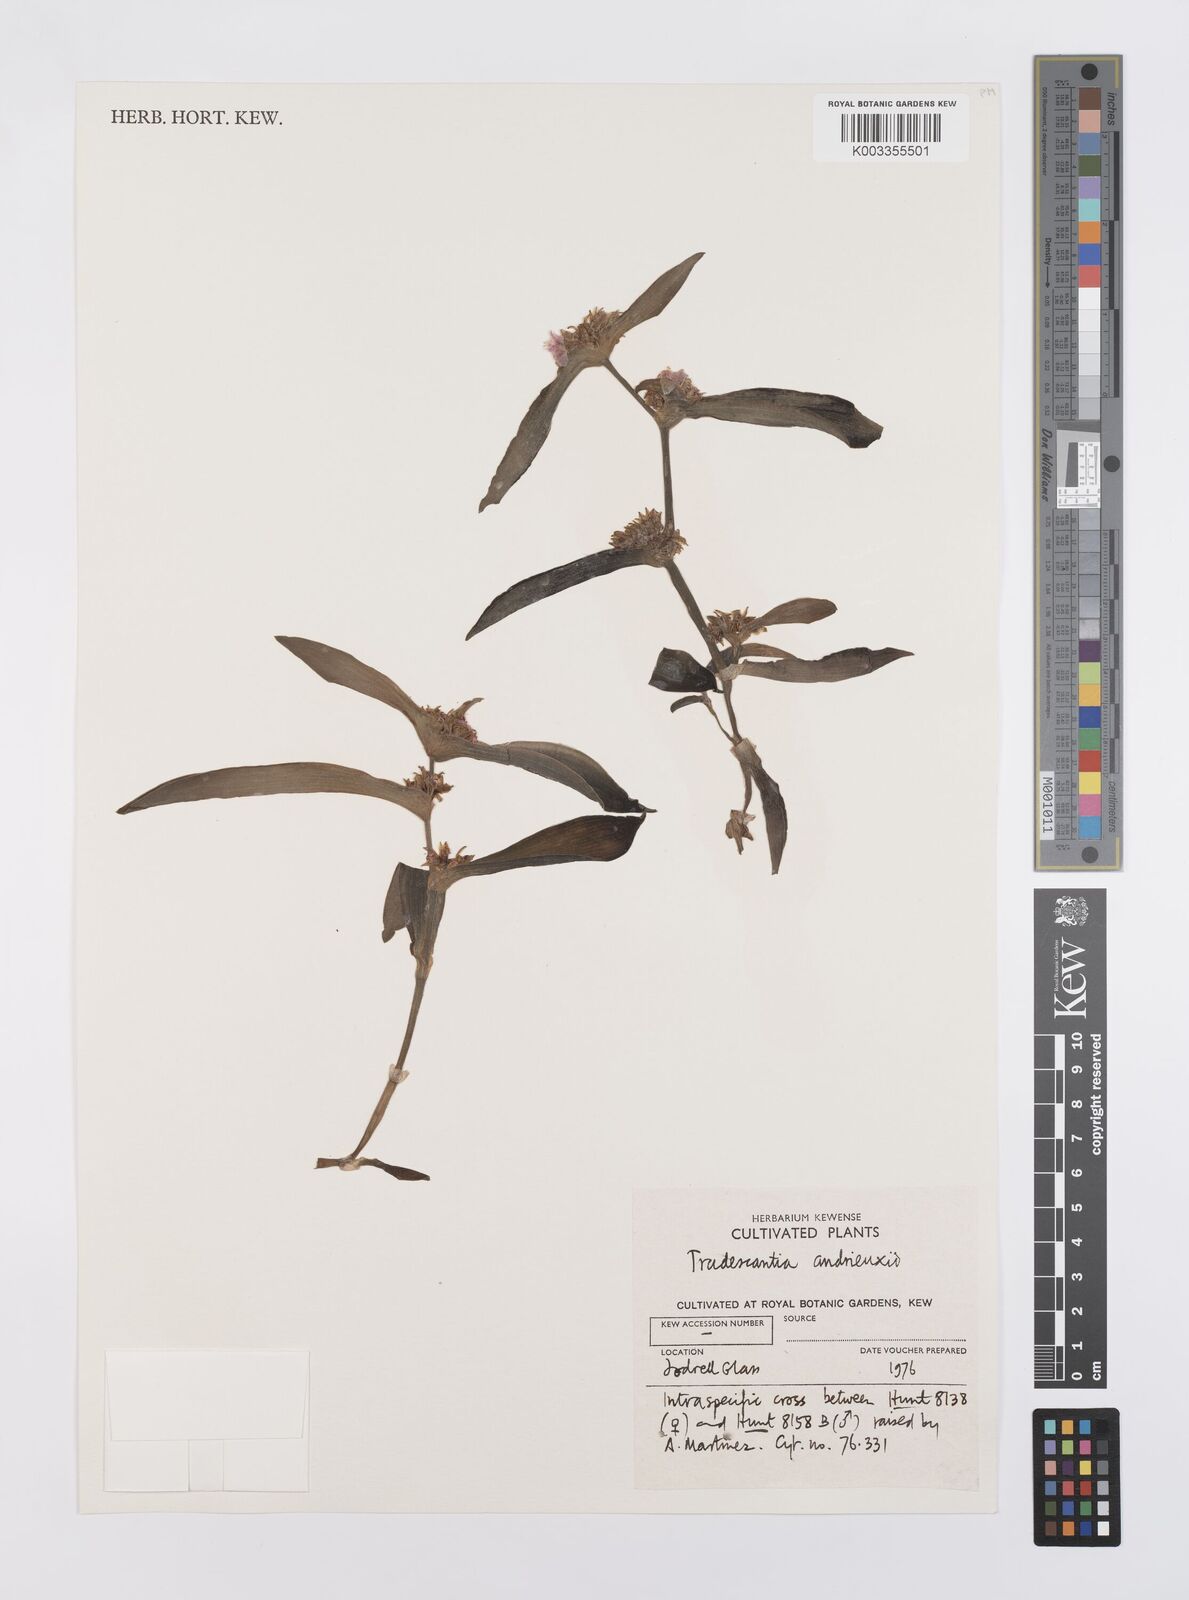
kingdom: Plantae
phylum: Tracheophyta
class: Liliopsida
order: Commelinales
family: Commelinaceae
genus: Tradescantia
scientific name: Tradescantia andrieuxii
